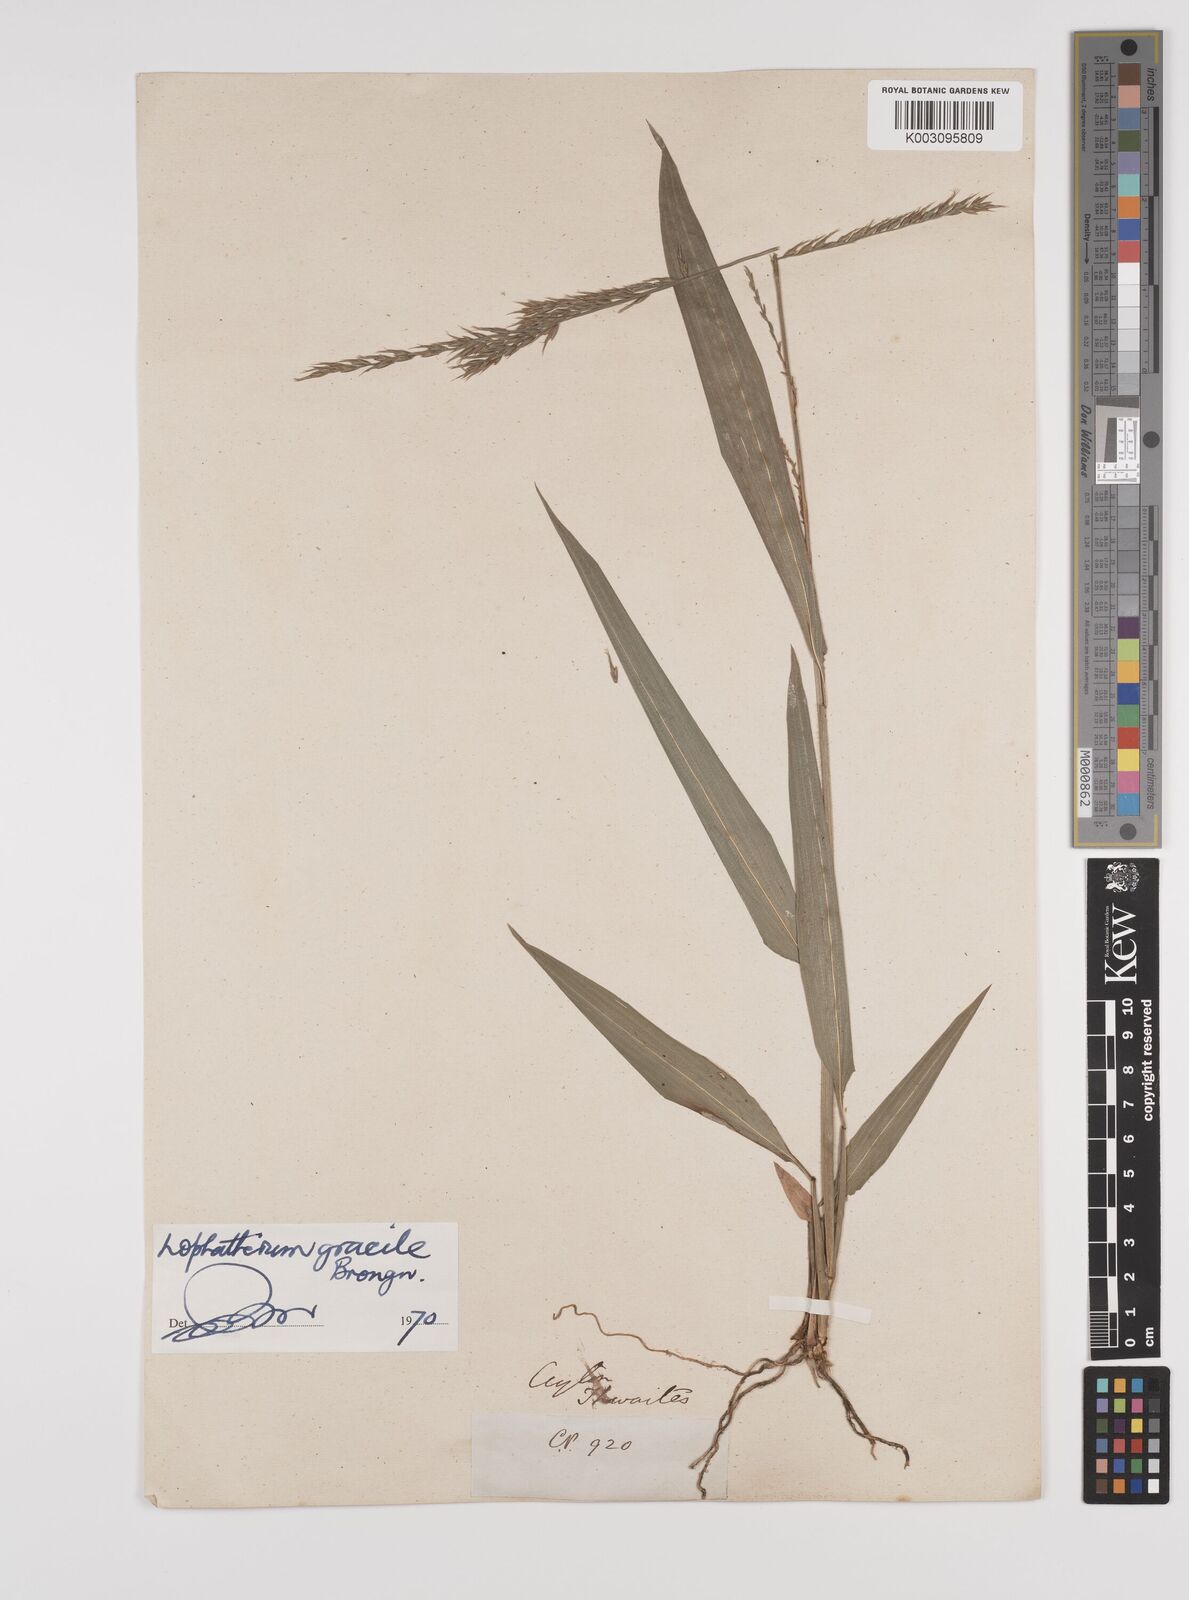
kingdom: Plantae
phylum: Tracheophyta
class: Liliopsida
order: Poales
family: Poaceae
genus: Lophatherum
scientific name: Lophatherum gracile
